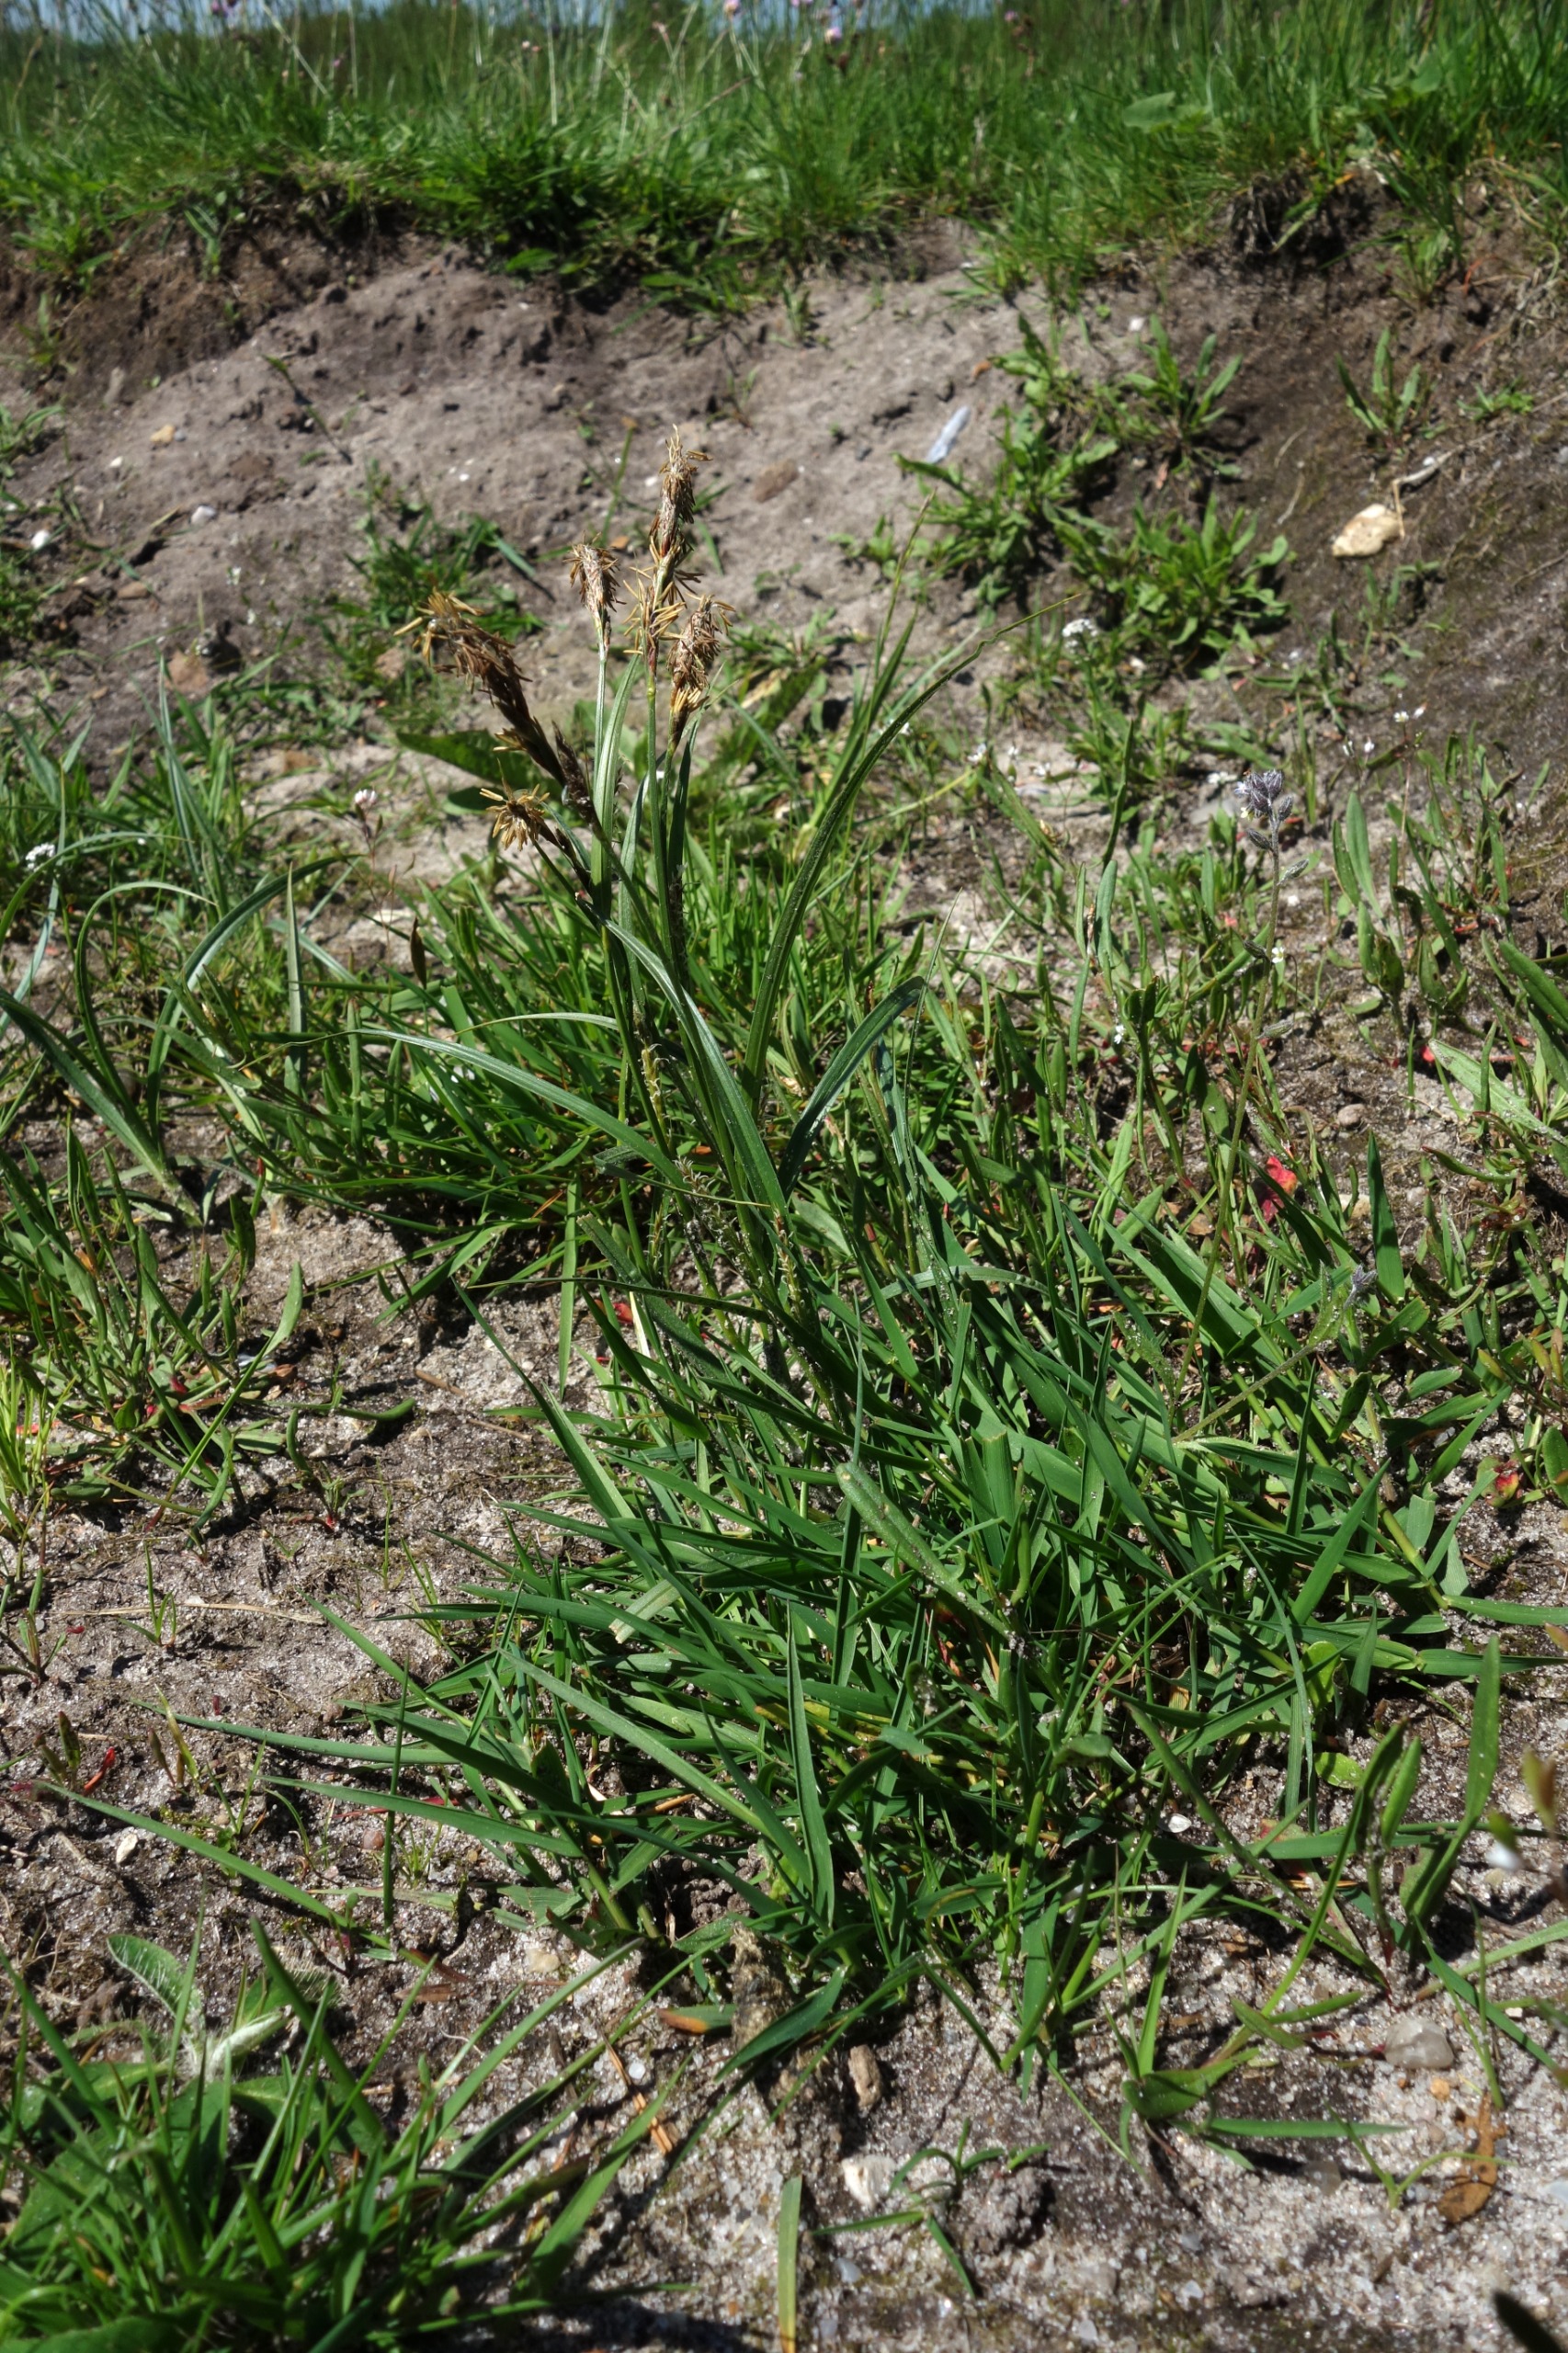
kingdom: Plantae
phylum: Tracheophyta
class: Liliopsida
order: Poales
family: Cyperaceae
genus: Carex
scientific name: Carex hirta
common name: Håret star
